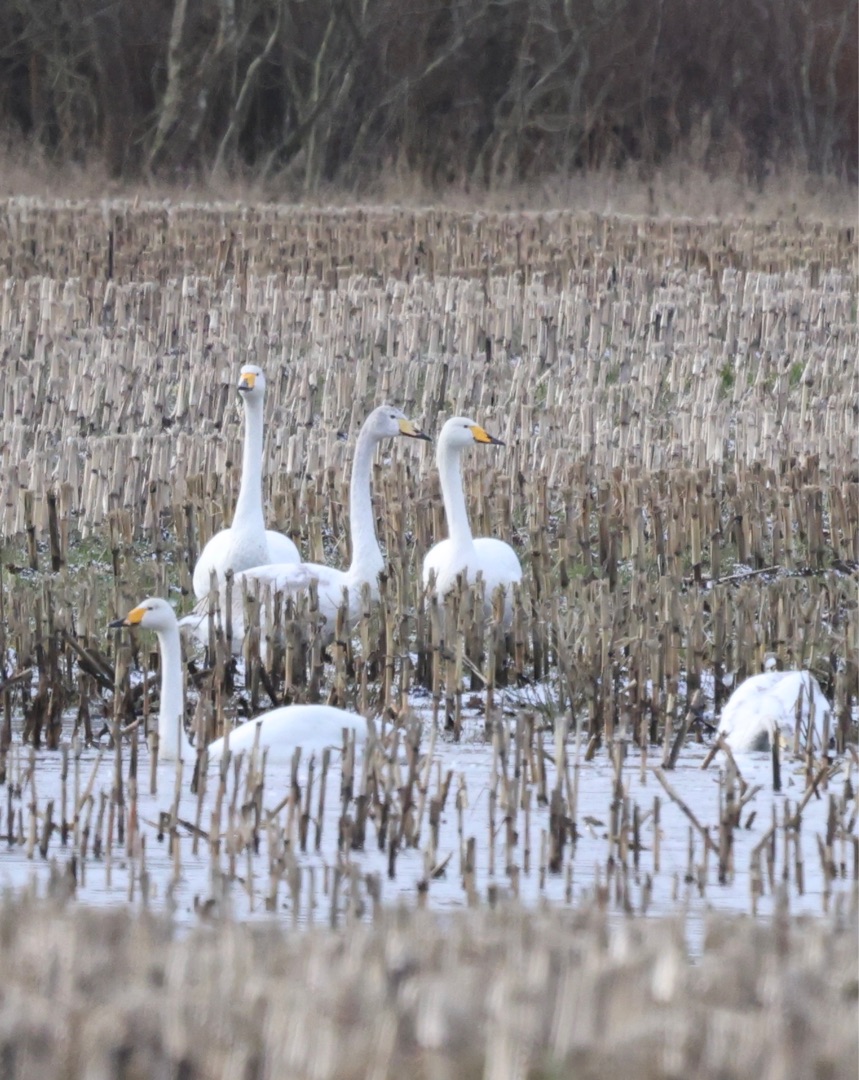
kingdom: Animalia
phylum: Chordata
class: Aves
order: Anseriformes
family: Anatidae
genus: Cygnus
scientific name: Cygnus cygnus
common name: Sangsvane
